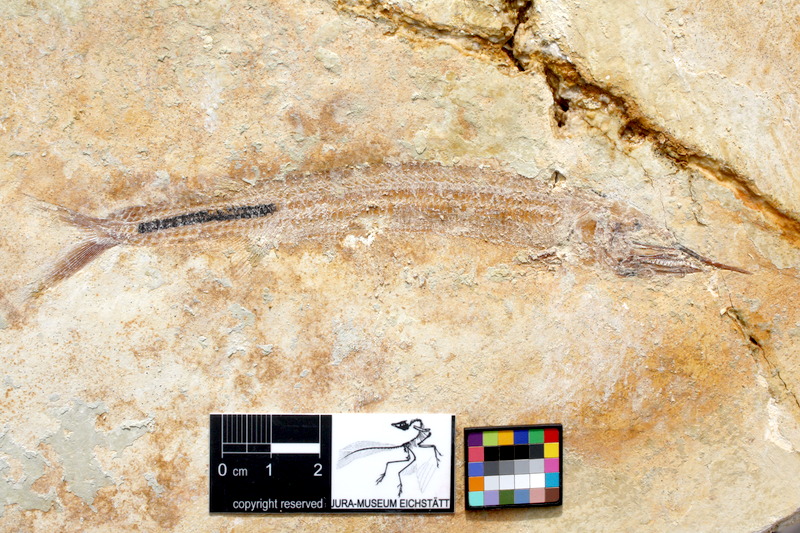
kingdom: Animalia
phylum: Chordata
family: Aspidorhynchidae
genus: Aspidorhynchus
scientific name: Aspidorhynchus sanzenbacheri
